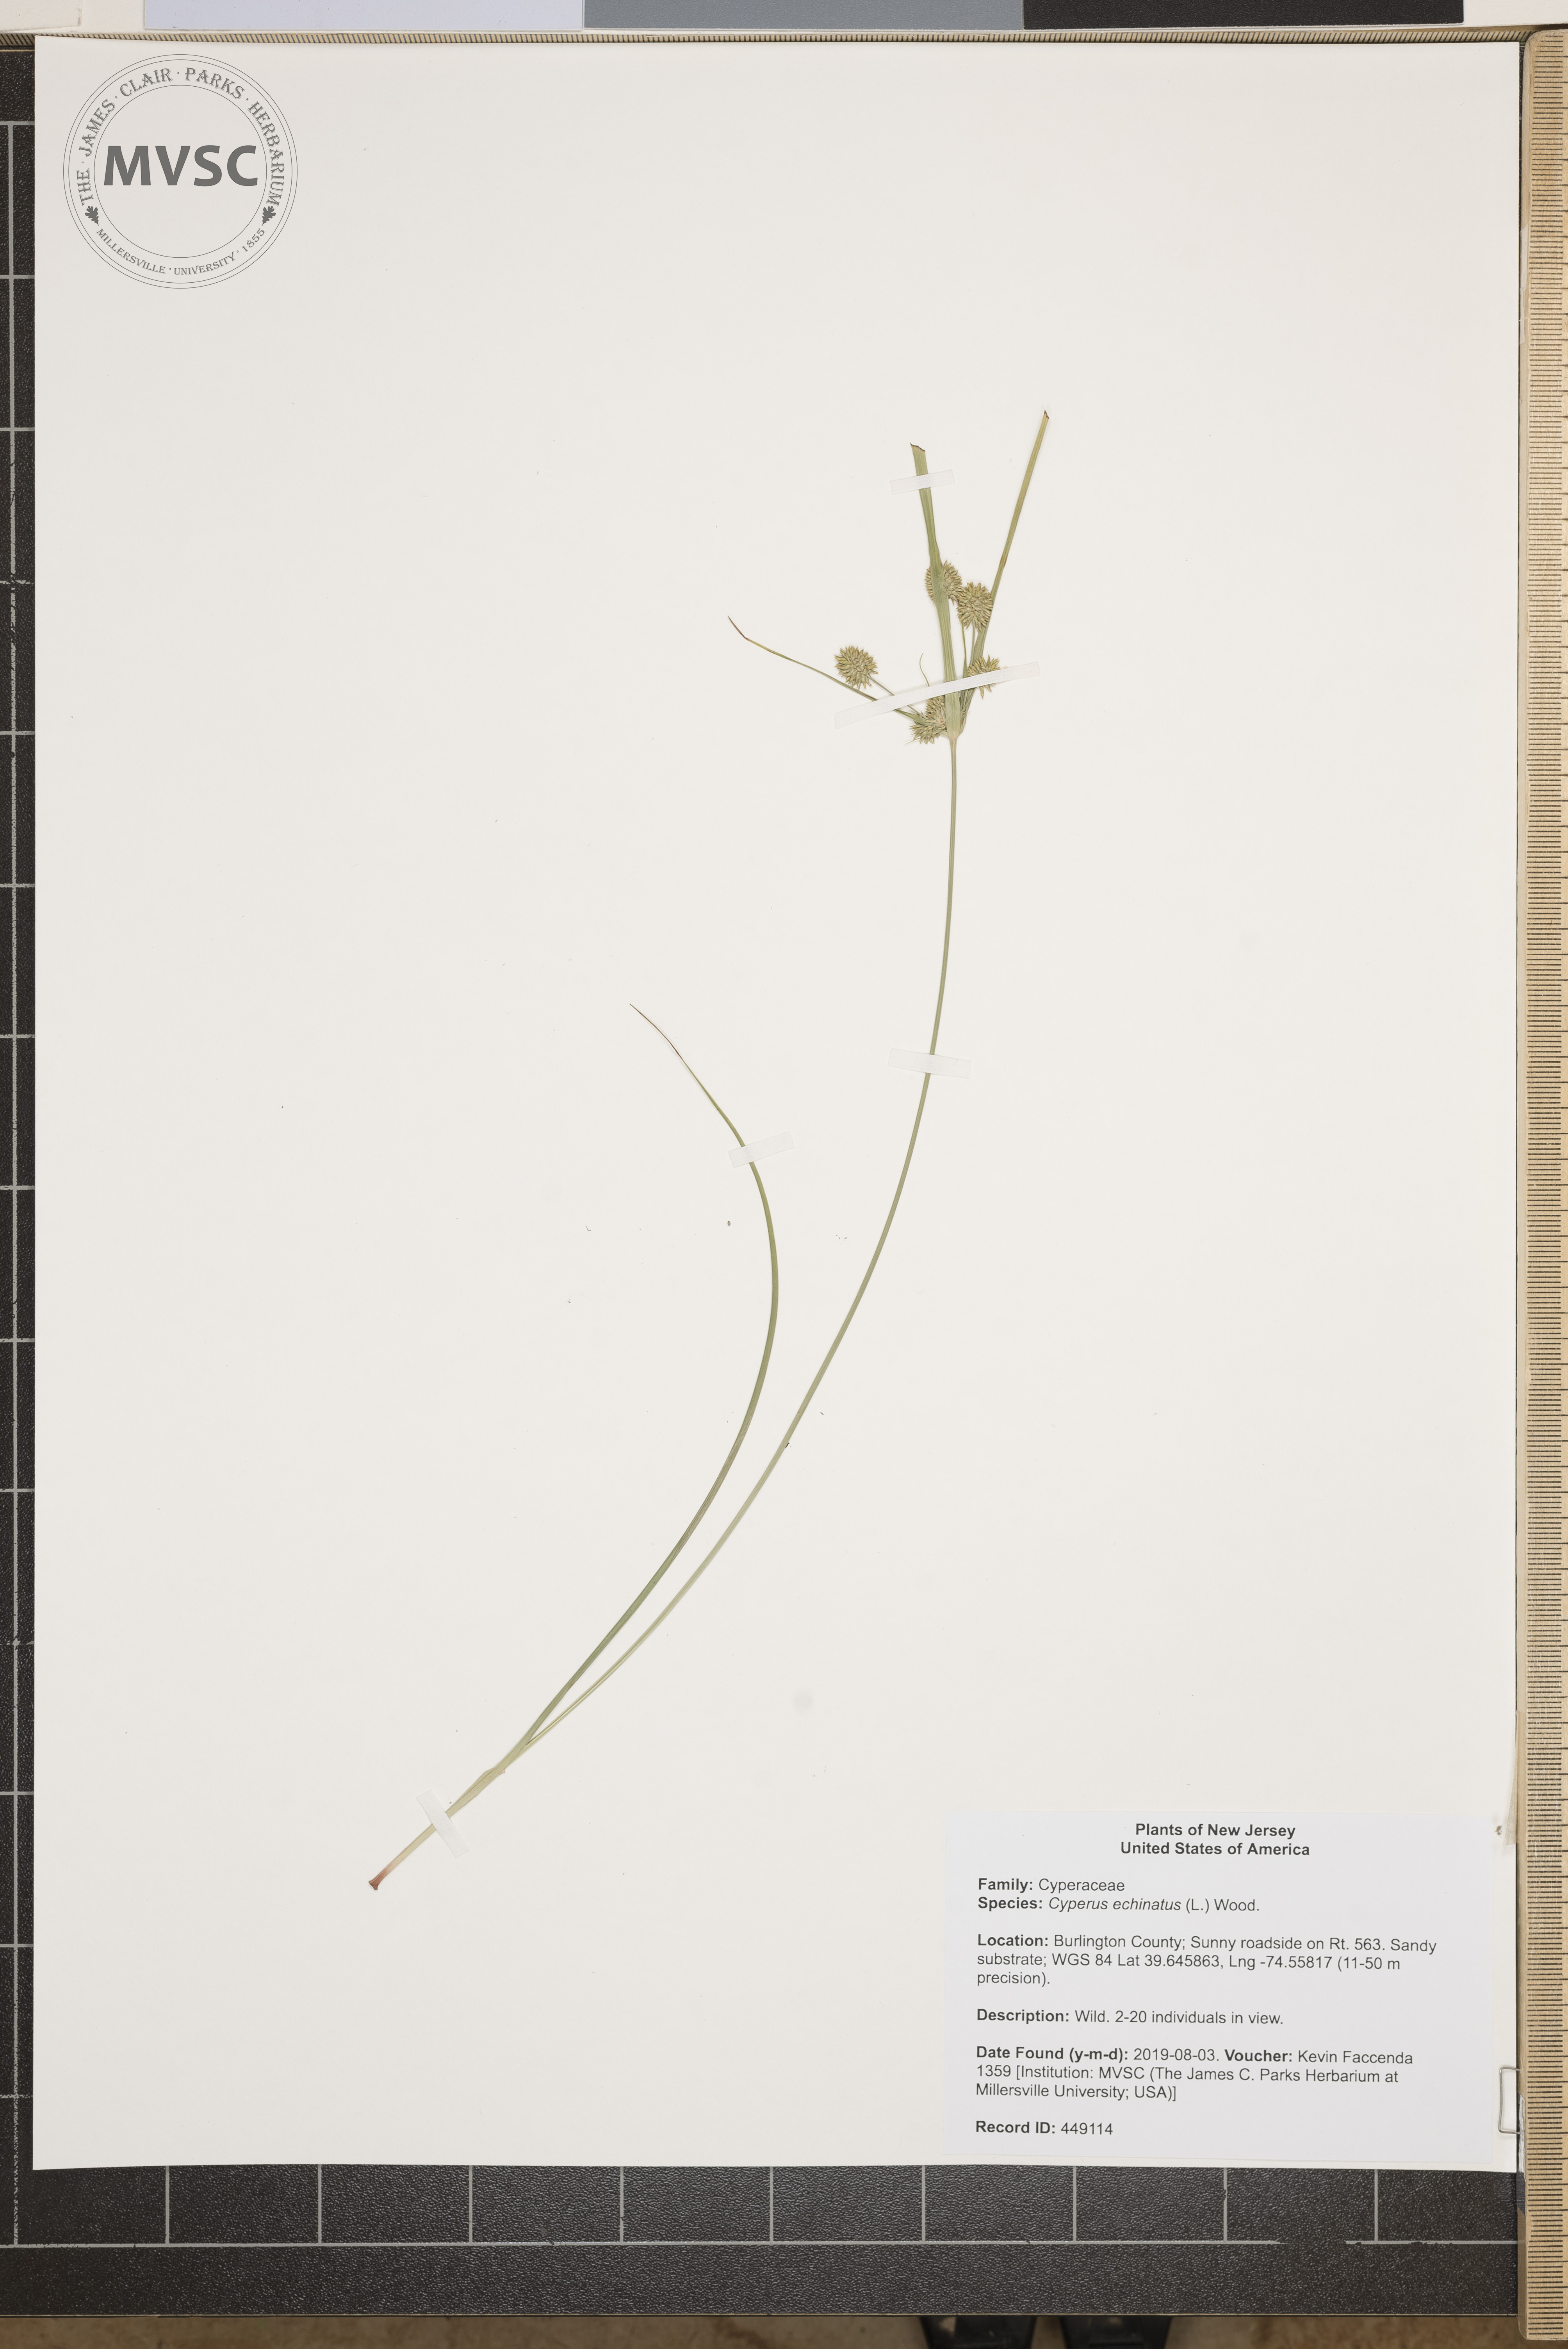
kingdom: Plantae
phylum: Tracheophyta
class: Liliopsida
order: Poales
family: Cyperaceae
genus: Cyperus
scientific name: Cyperus echinatus
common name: Teasel sedge
